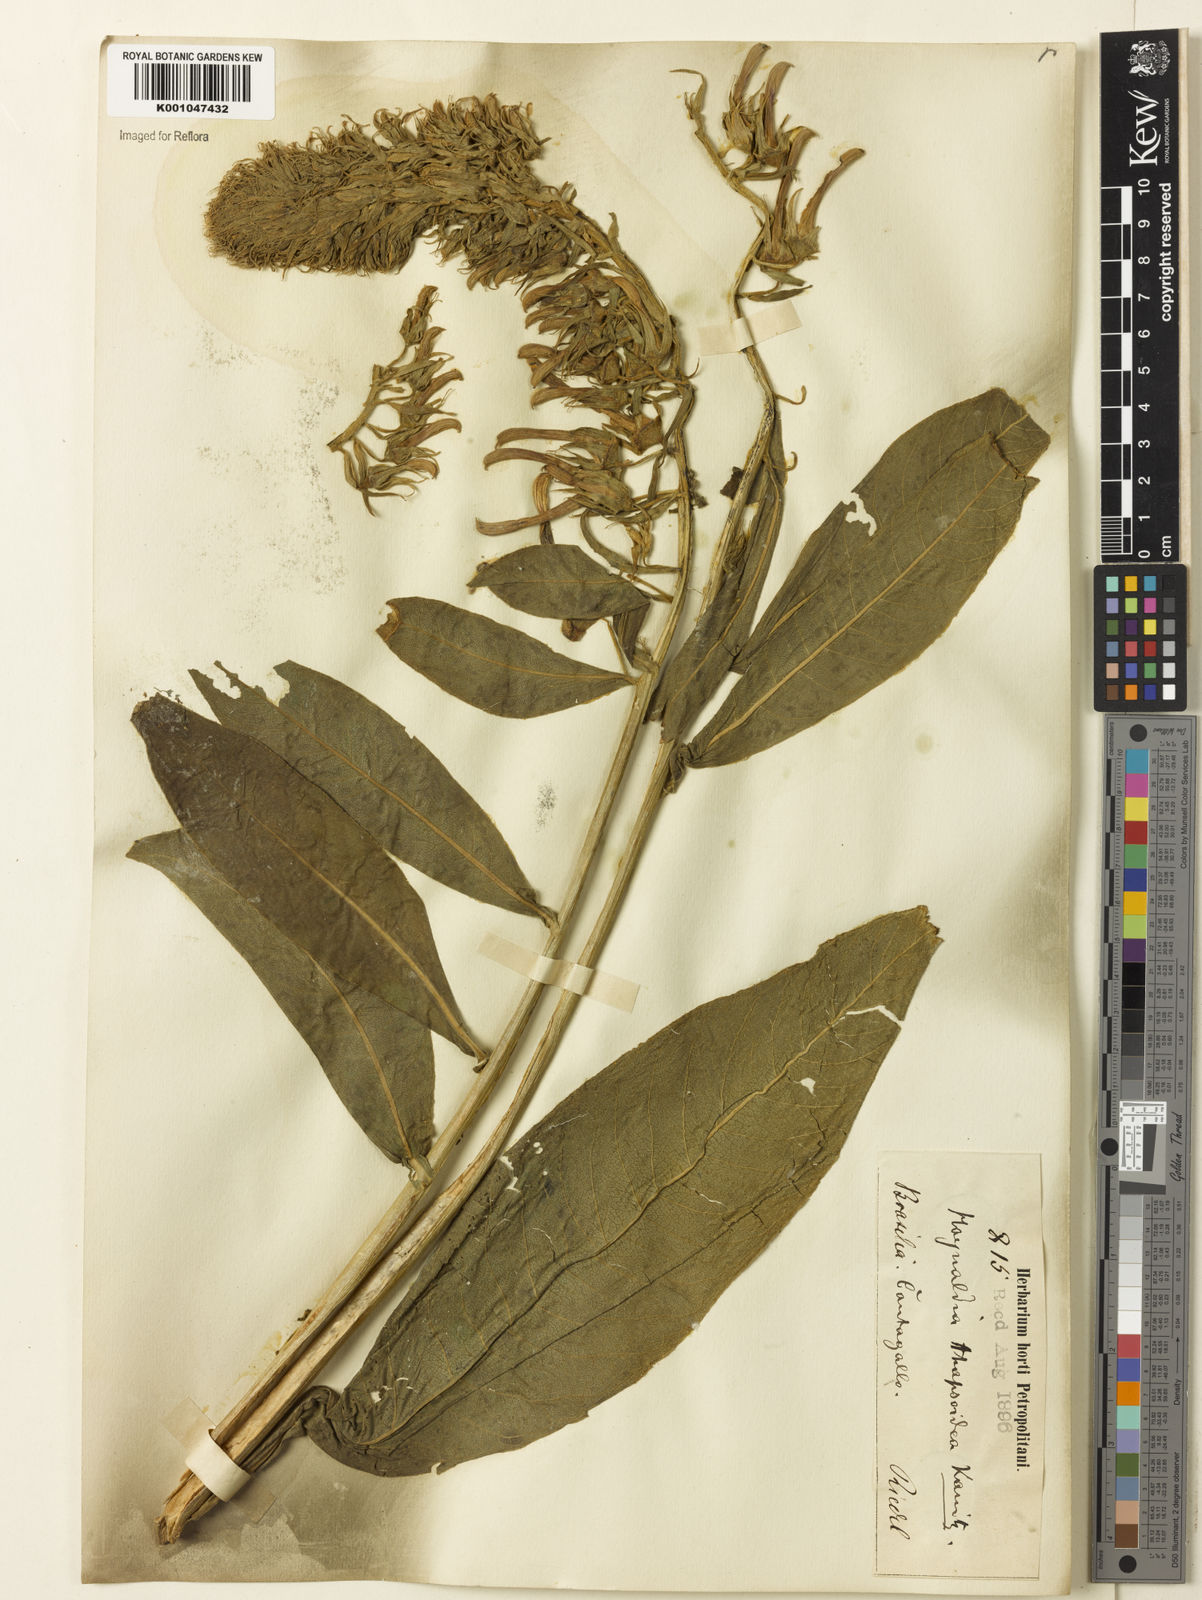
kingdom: Plantae
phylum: Tracheophyta
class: Magnoliopsida
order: Asterales
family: Campanulaceae
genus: Lobelia
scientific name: Lobelia
